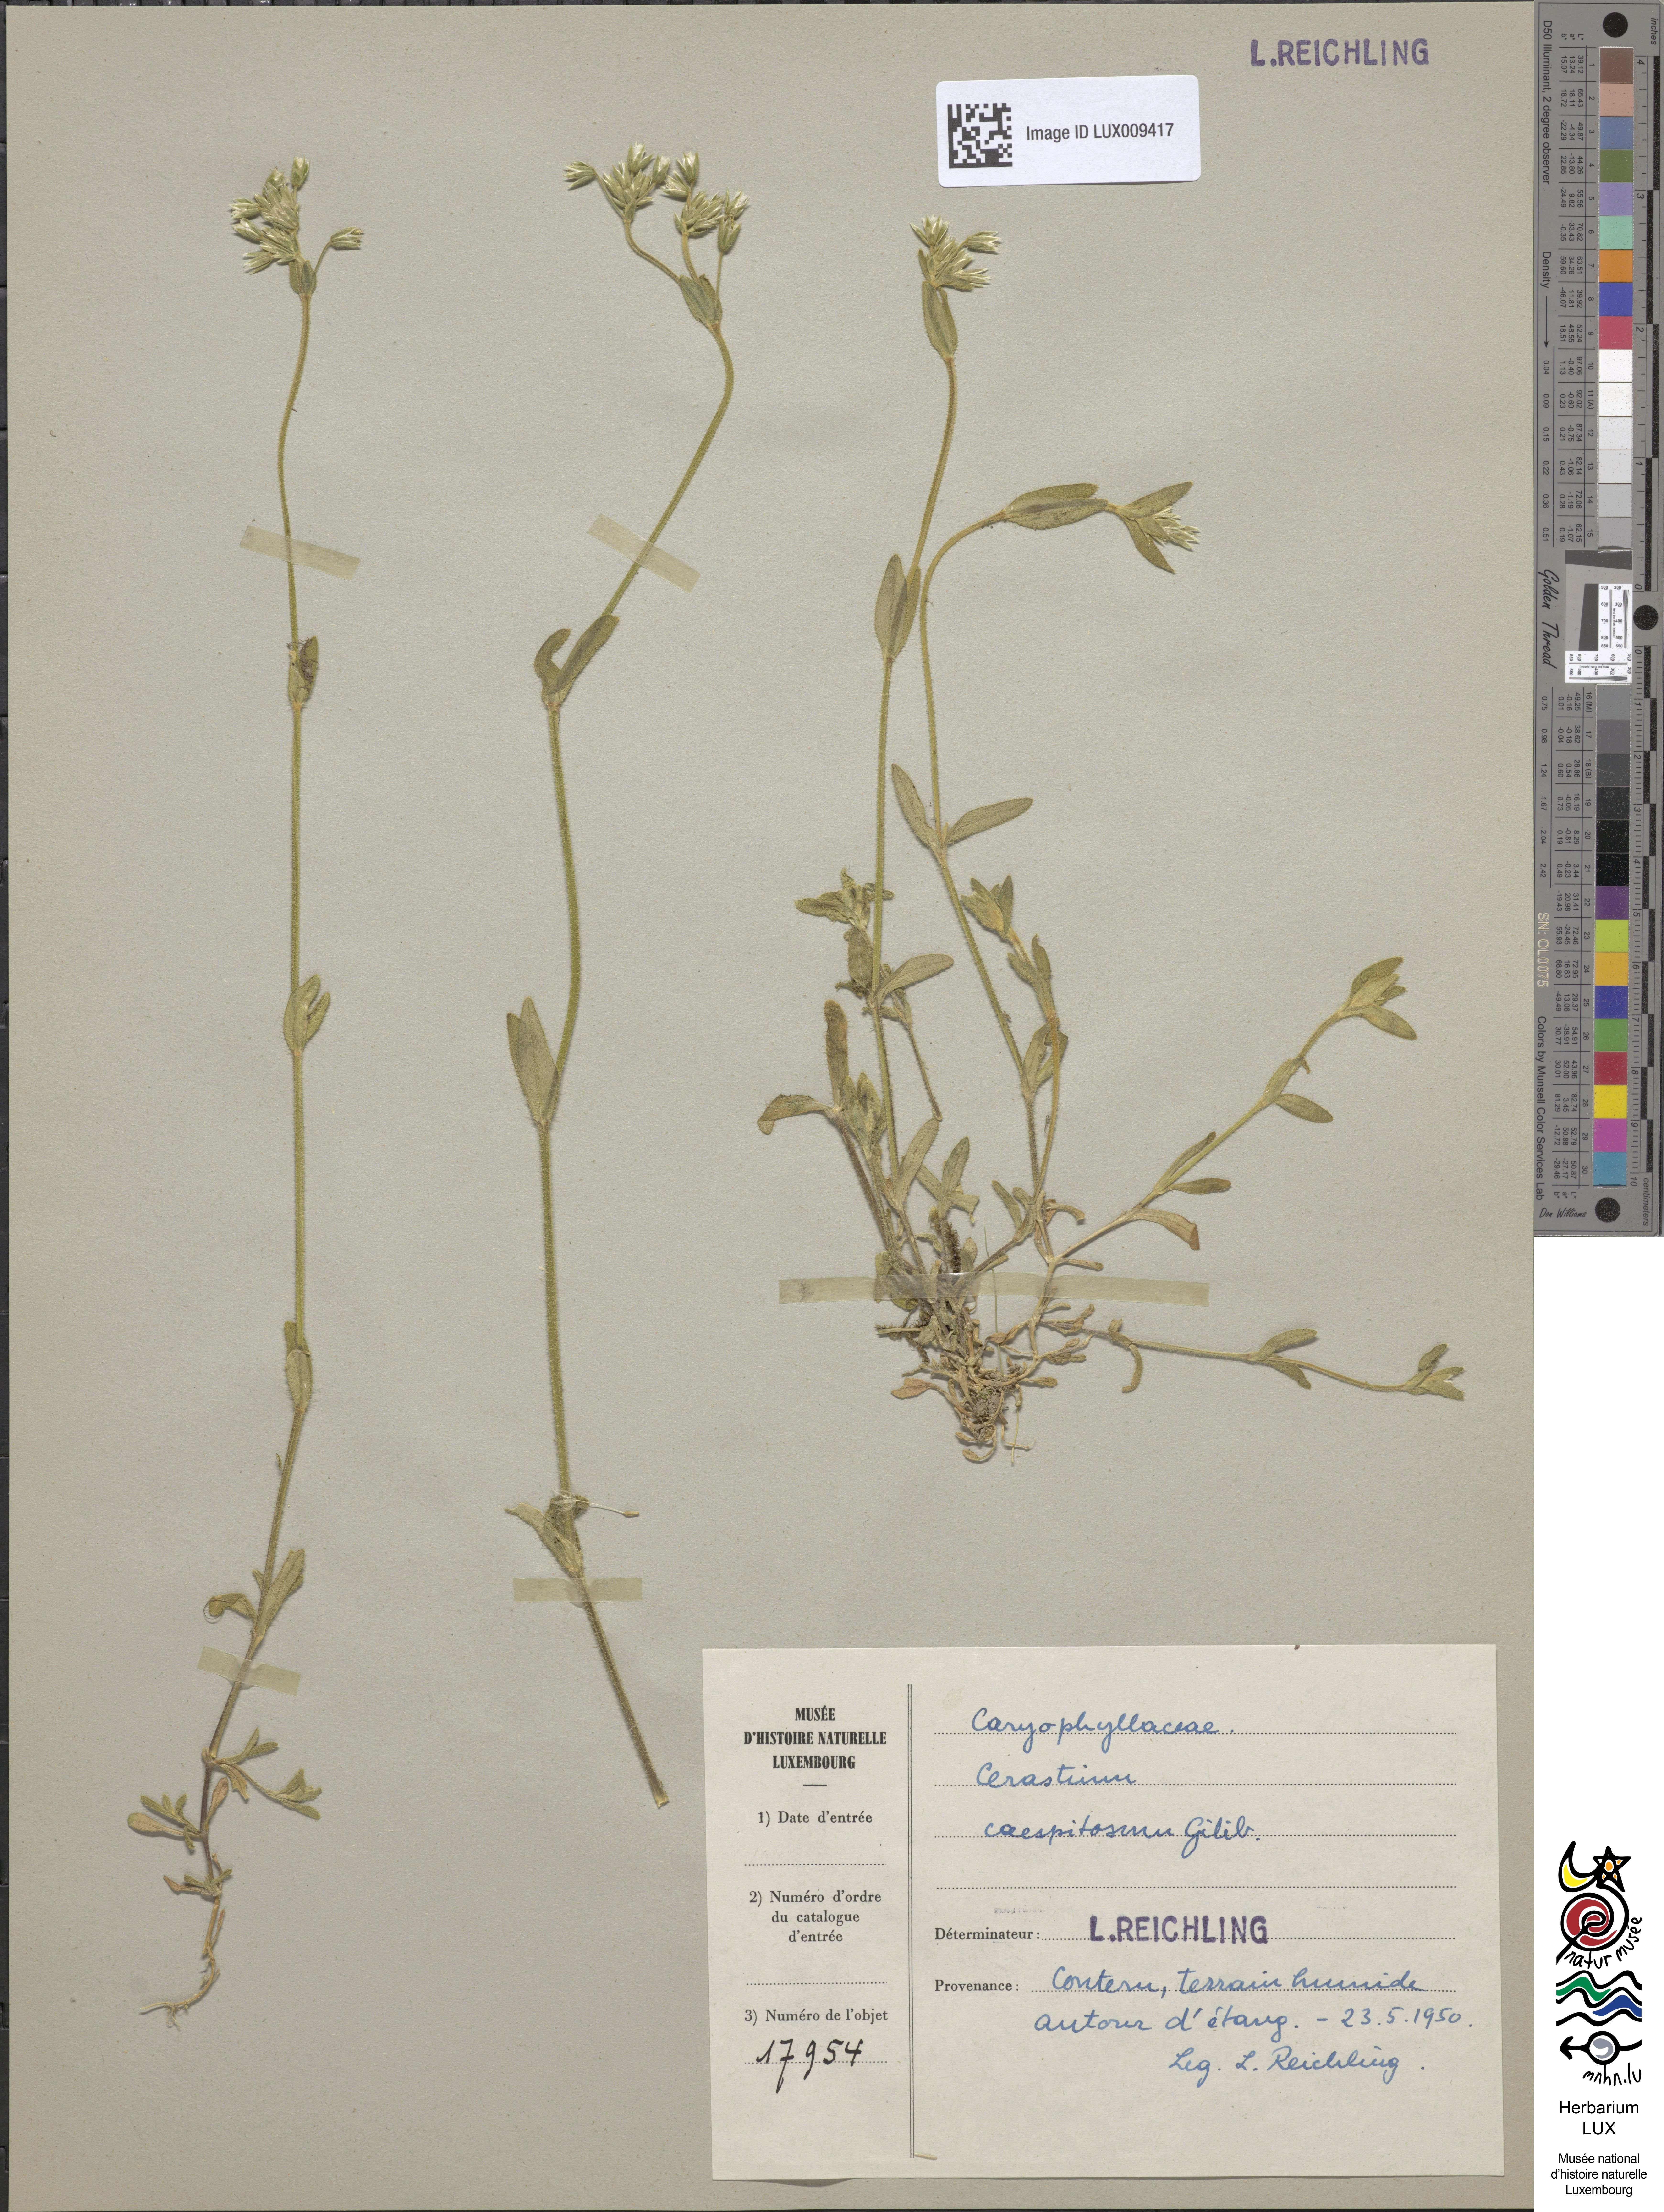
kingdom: Plantae
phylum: Tracheophyta
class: Magnoliopsida
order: Caryophyllales
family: Caryophyllaceae
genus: Cerastium
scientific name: Cerastium holosteoides
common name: Big chickweed
